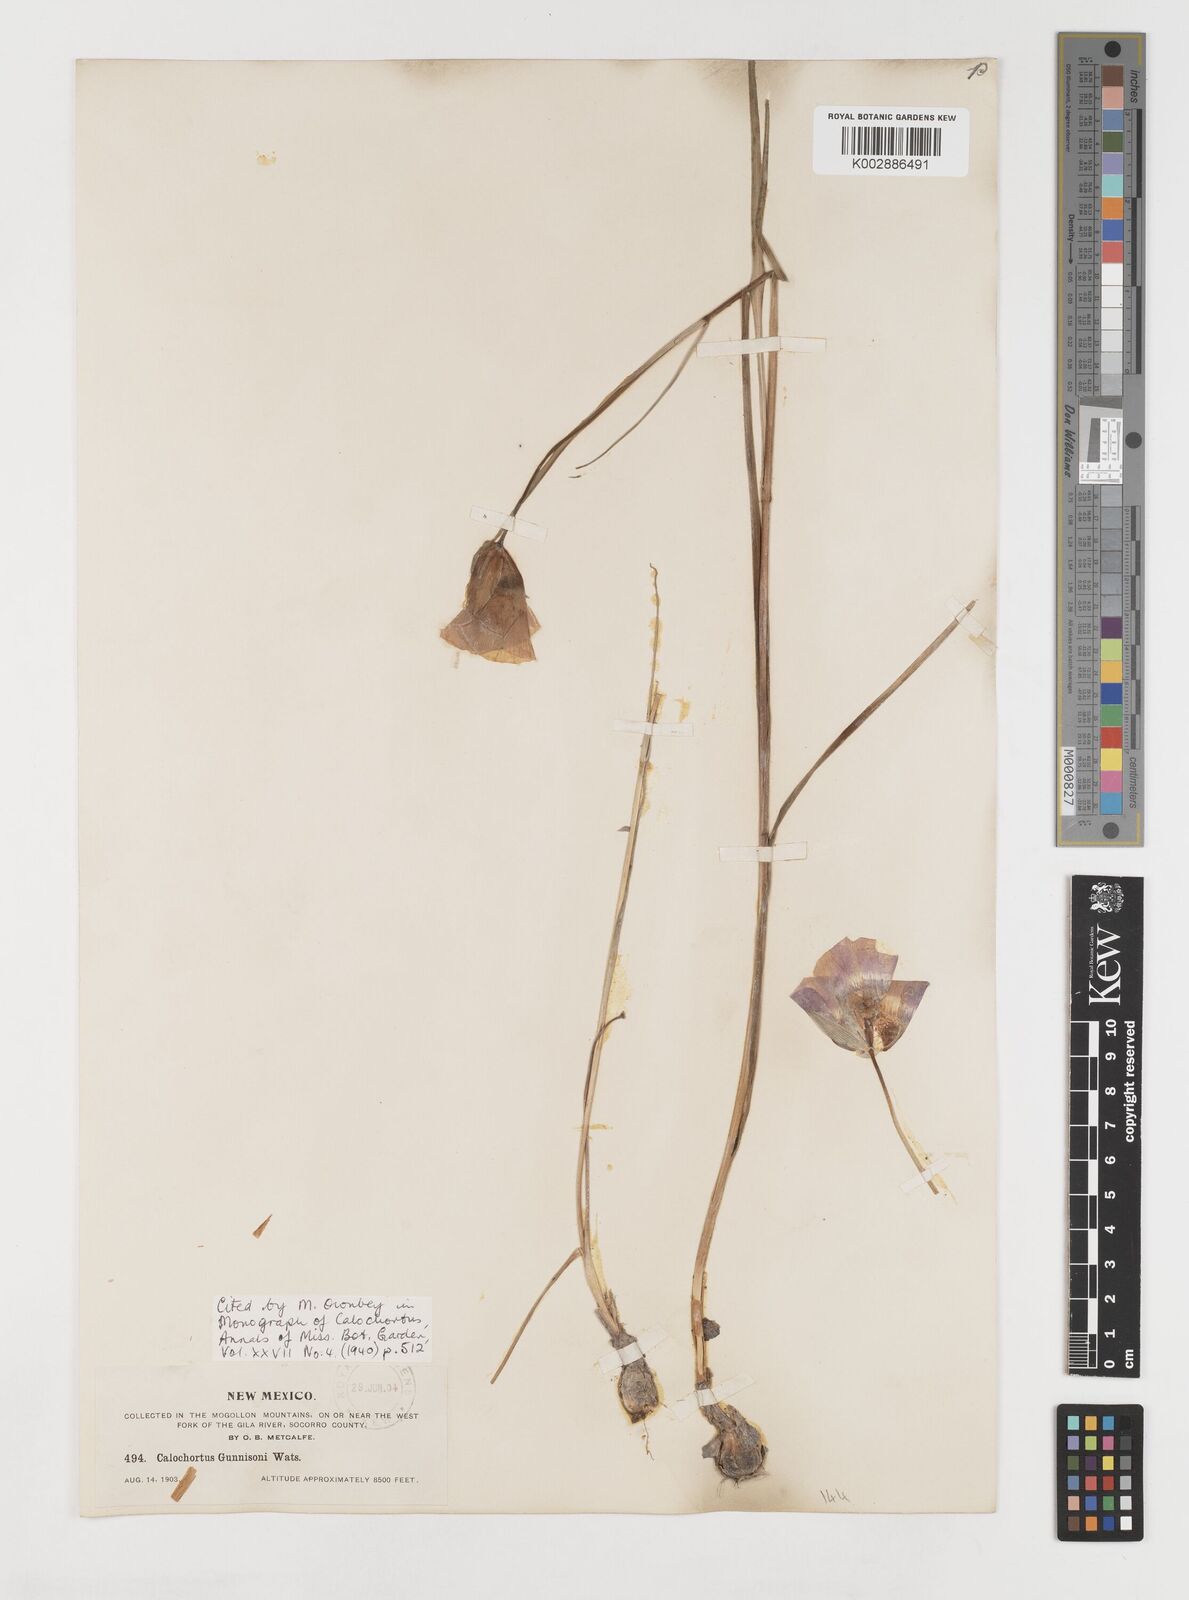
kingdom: Plantae
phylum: Tracheophyta
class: Liliopsida
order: Liliales
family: Liliaceae
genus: Calochortus
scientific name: Calochortus gunnisonii
